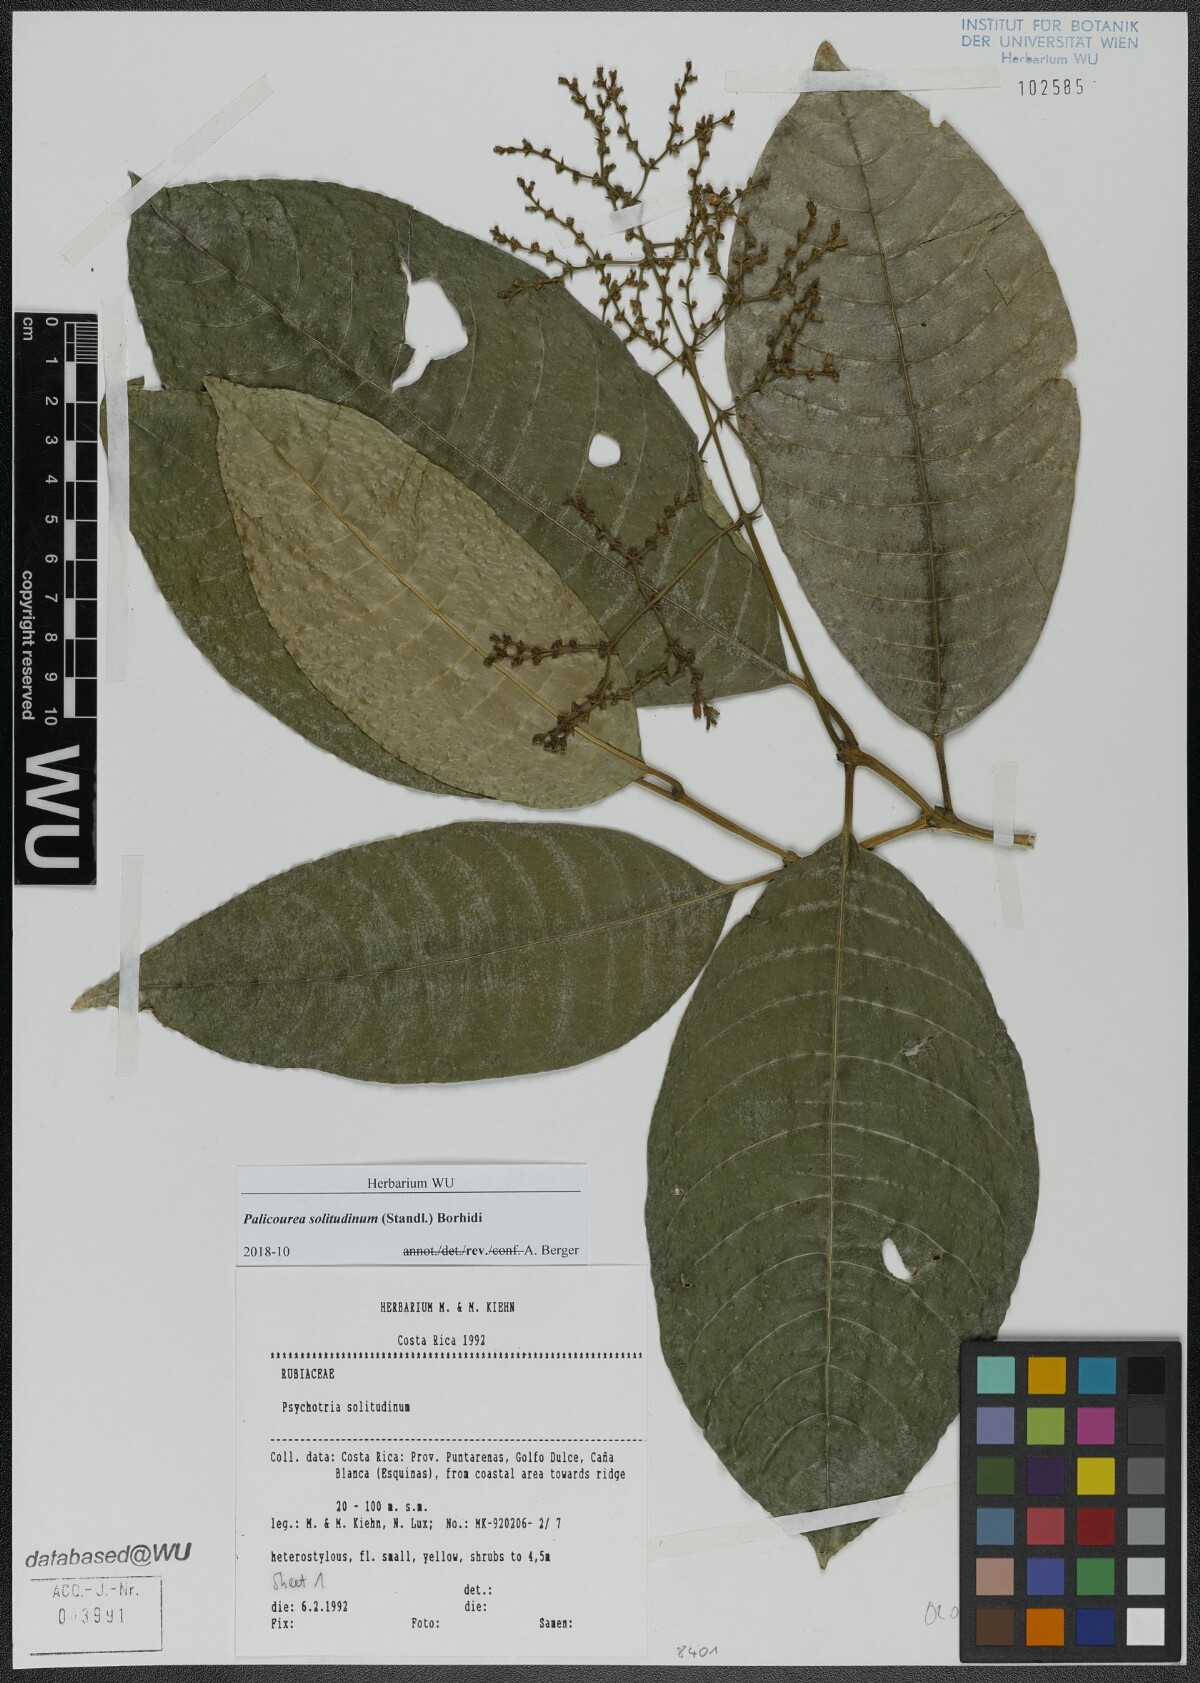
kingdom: Plantae
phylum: Tracheophyta
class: Magnoliopsida
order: Gentianales
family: Rubiaceae
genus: Palicourea
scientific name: Palicourea solitudinum
